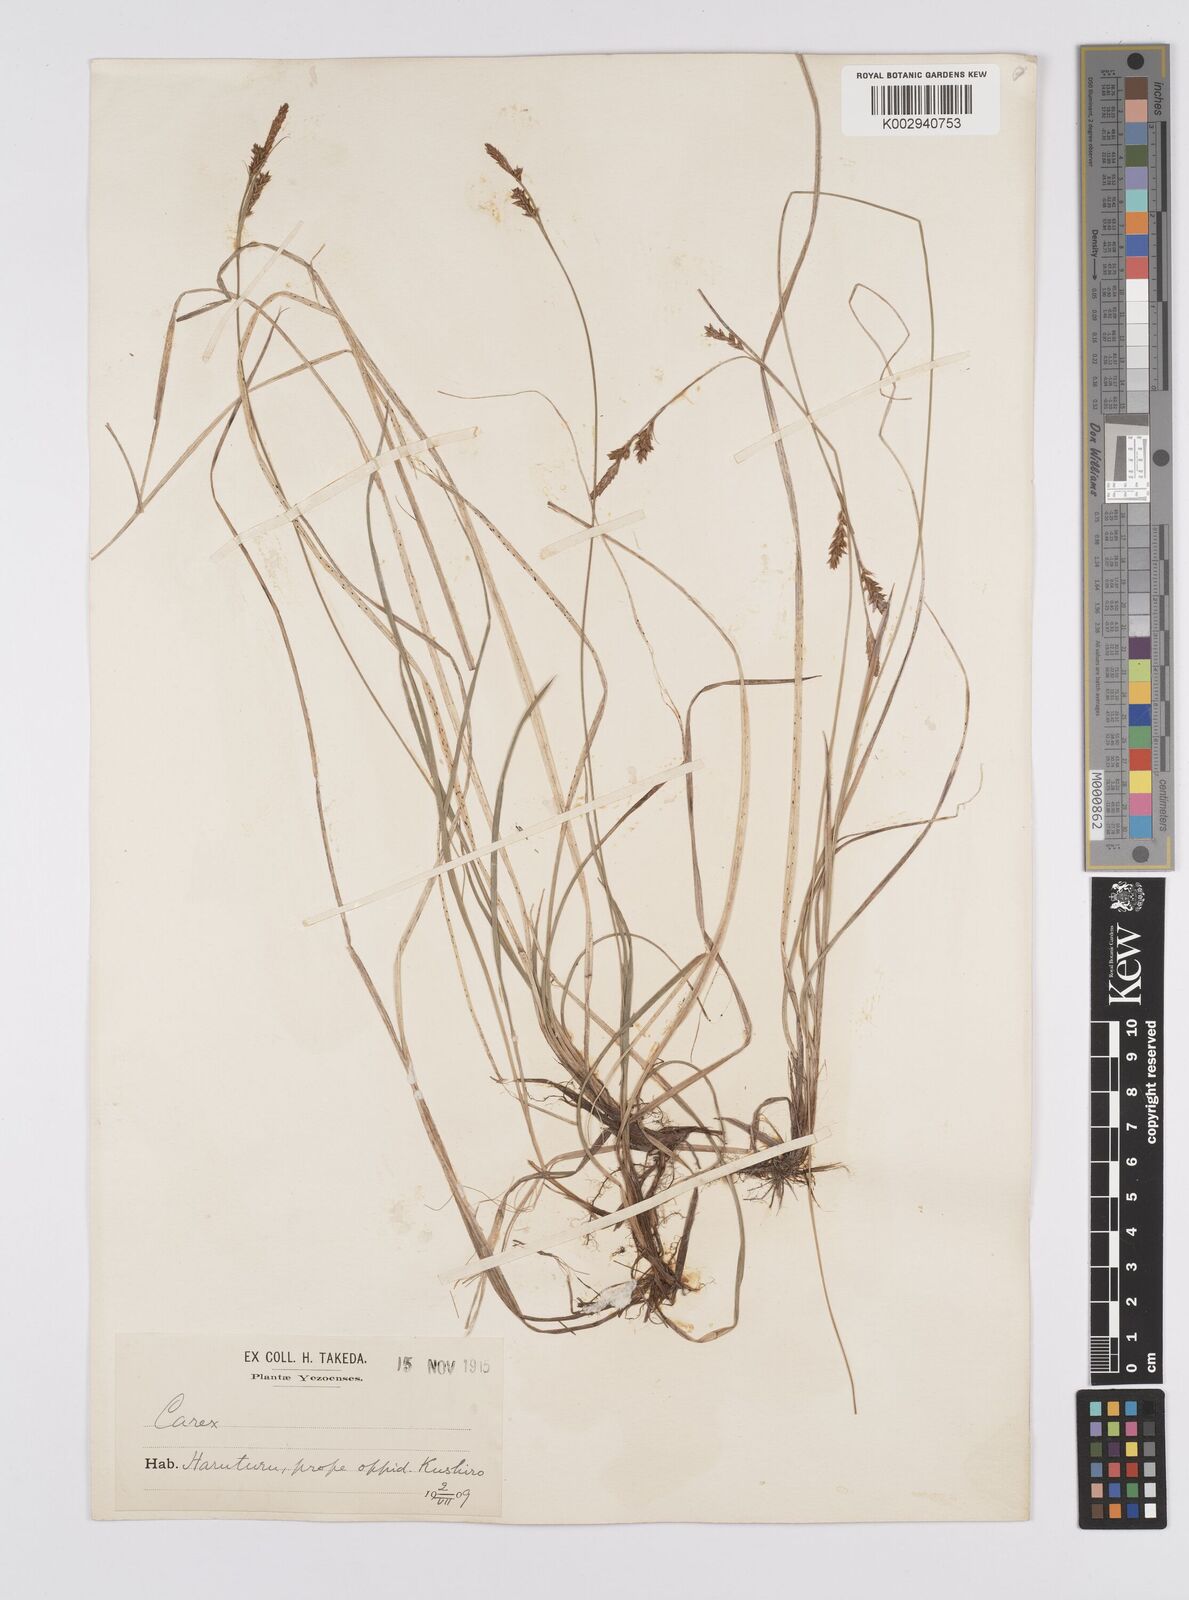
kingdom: Plantae
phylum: Tracheophyta
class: Liliopsida
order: Poales
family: Cyperaceae
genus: Carex
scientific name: Carex umbrosa
